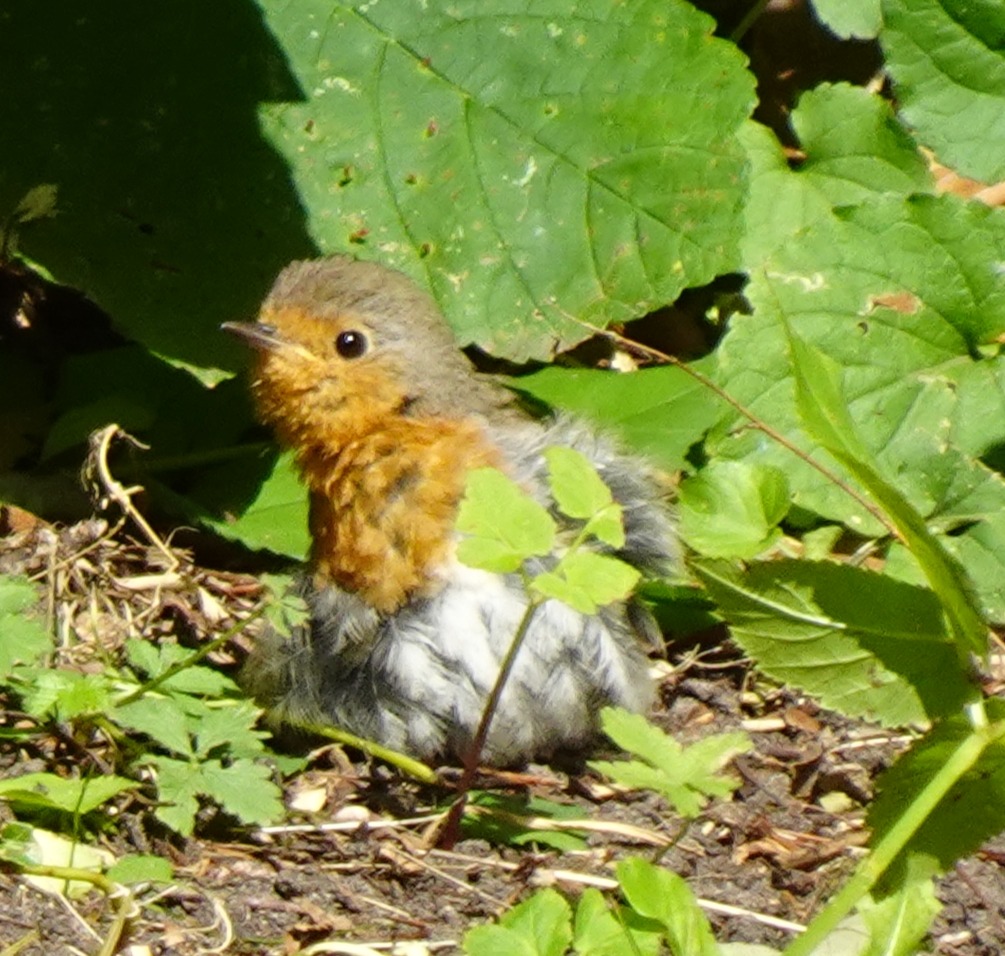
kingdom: Animalia
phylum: Chordata
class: Aves
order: Passeriformes
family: Muscicapidae
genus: Erithacus
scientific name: Erithacus rubecula
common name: Rødhals/rødkælk
